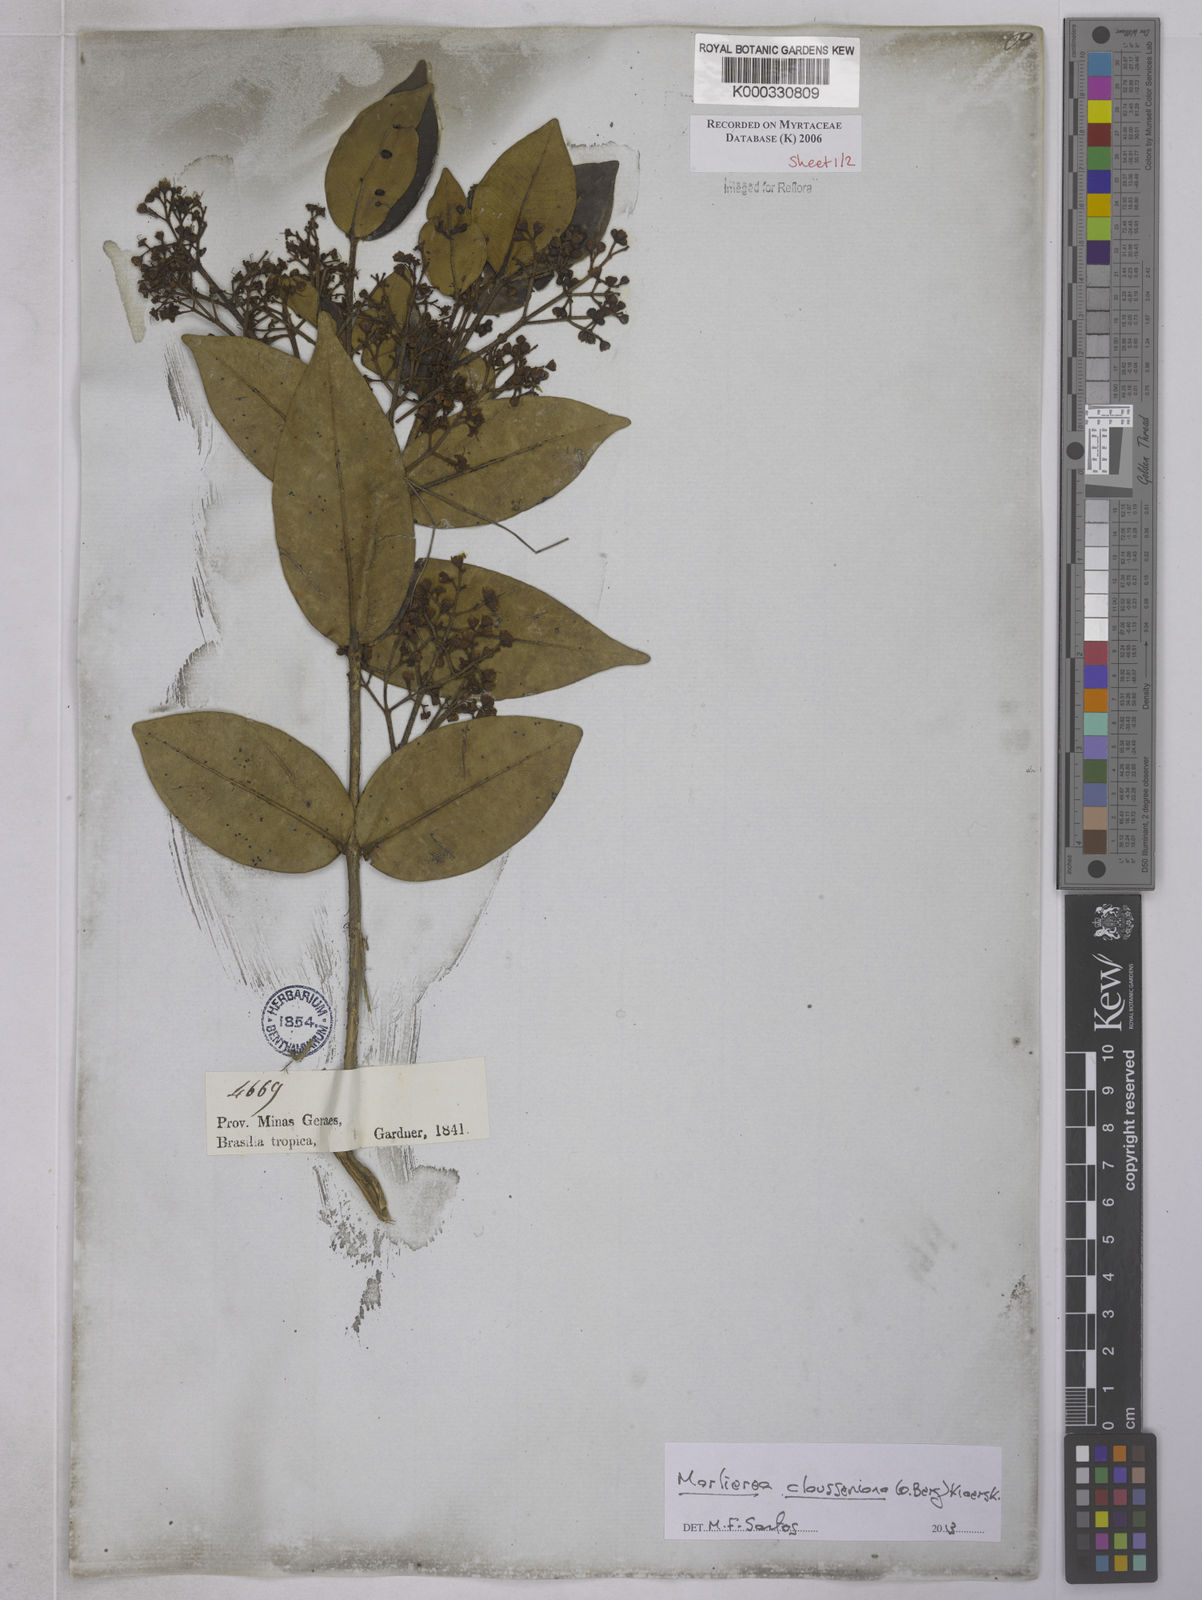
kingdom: Plantae
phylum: Tracheophyta
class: Magnoliopsida
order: Myrtales
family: Myrtaceae
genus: Marlierea
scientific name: Marlierea
